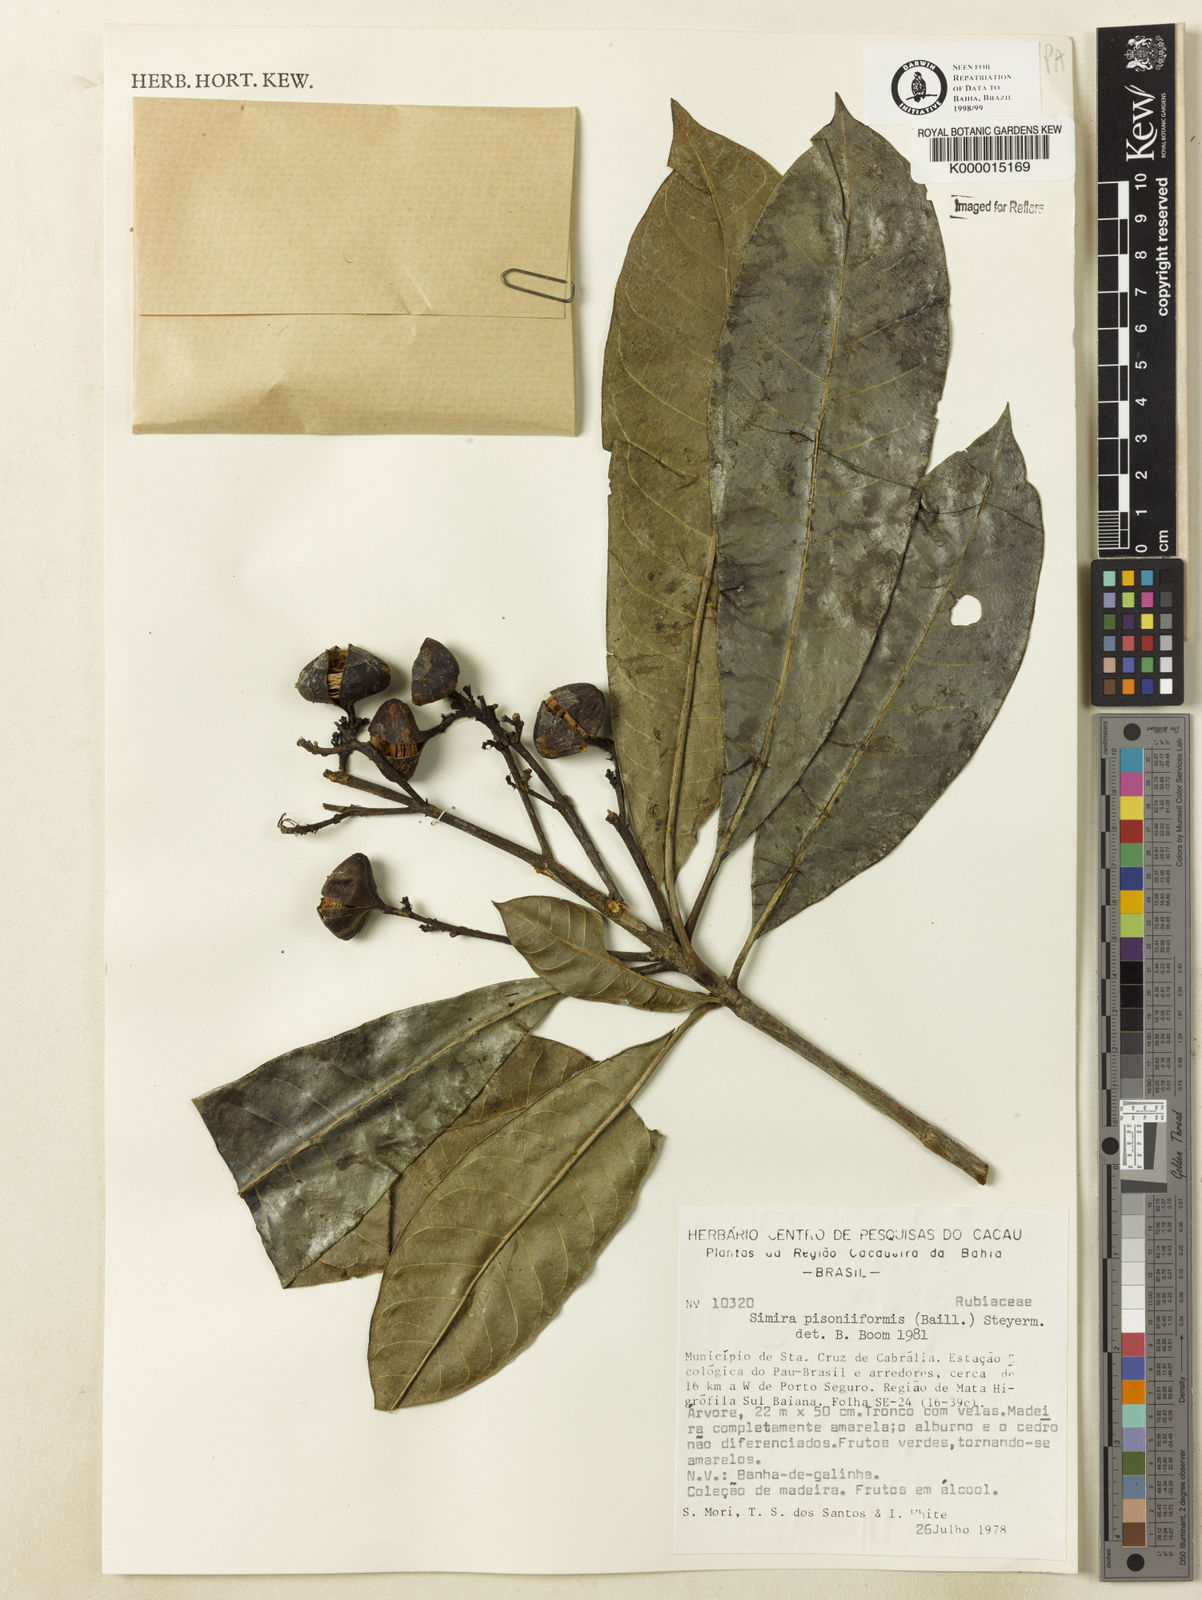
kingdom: Plantae
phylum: Tracheophyta
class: Magnoliopsida
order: Gentianales
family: Rubiaceae
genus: Simira
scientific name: Simira podocarpa
